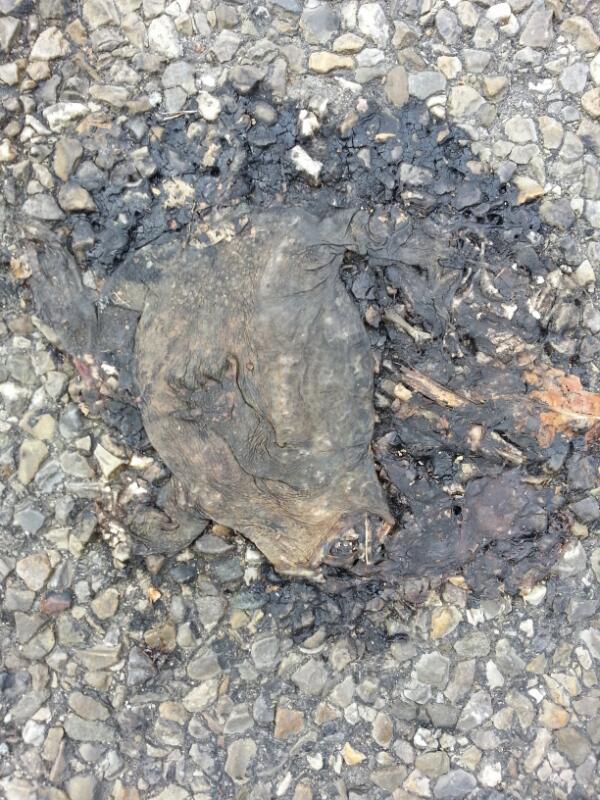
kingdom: Animalia
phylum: Chordata
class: Amphibia
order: Anura
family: Bufonidae
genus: Bufo
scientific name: Bufo bufo
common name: Common toad
